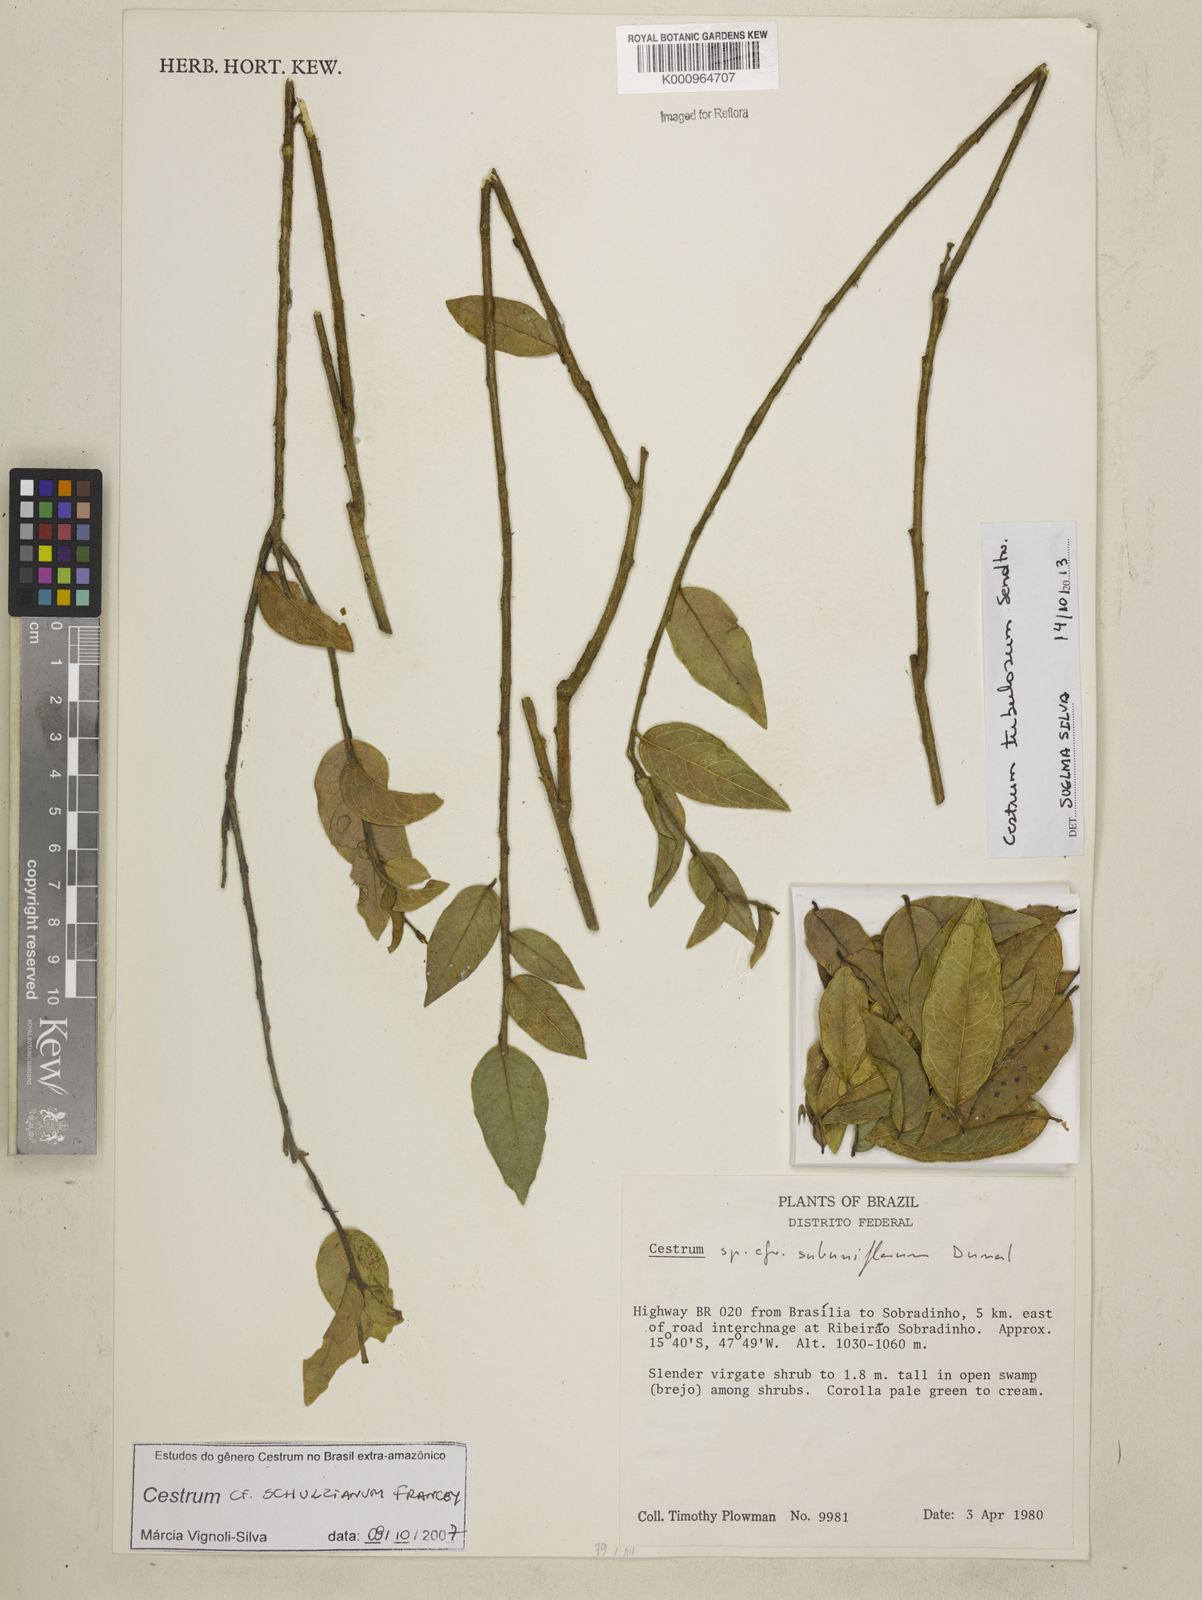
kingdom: Plantae
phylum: Tracheophyta
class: Magnoliopsida
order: Solanales
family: Solanaceae
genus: Cestrum
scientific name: Cestrum tubulosum
